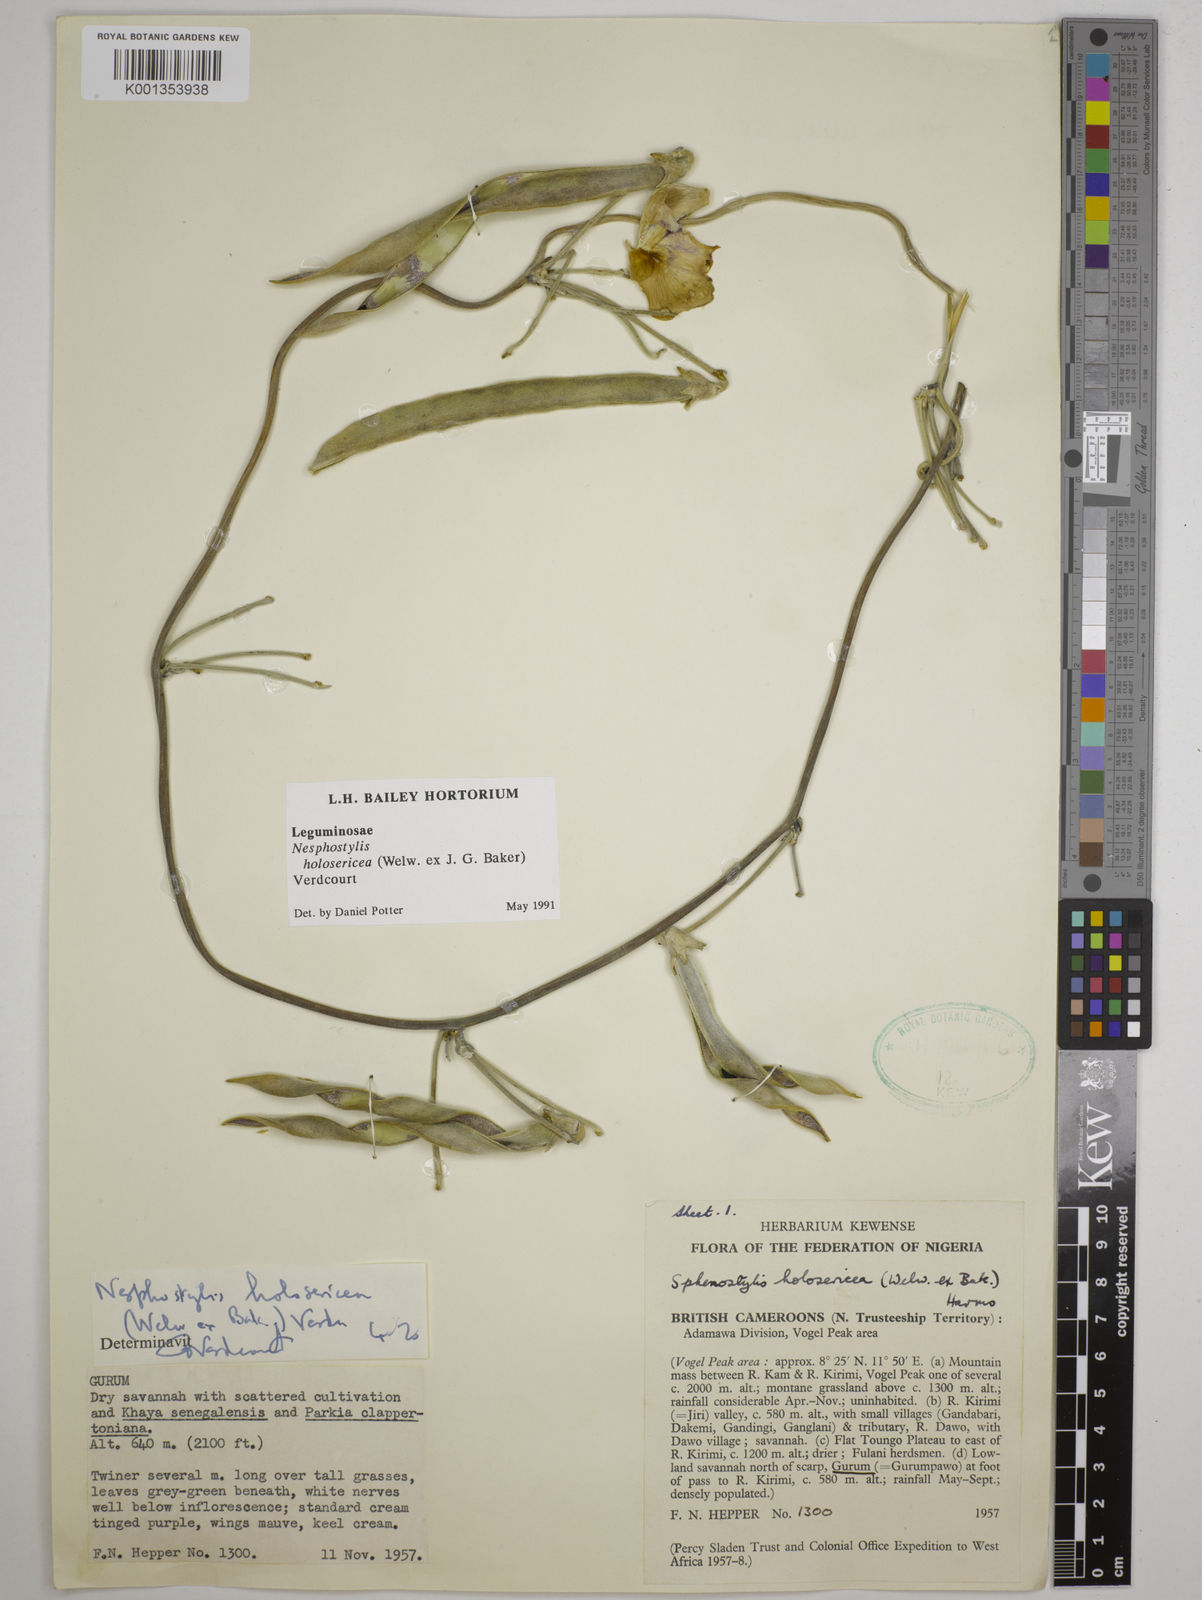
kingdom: Plantae
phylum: Tracheophyta
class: Magnoliopsida
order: Fabales
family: Fabaceae
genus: Nesphostylis
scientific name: Nesphostylis holosericea
